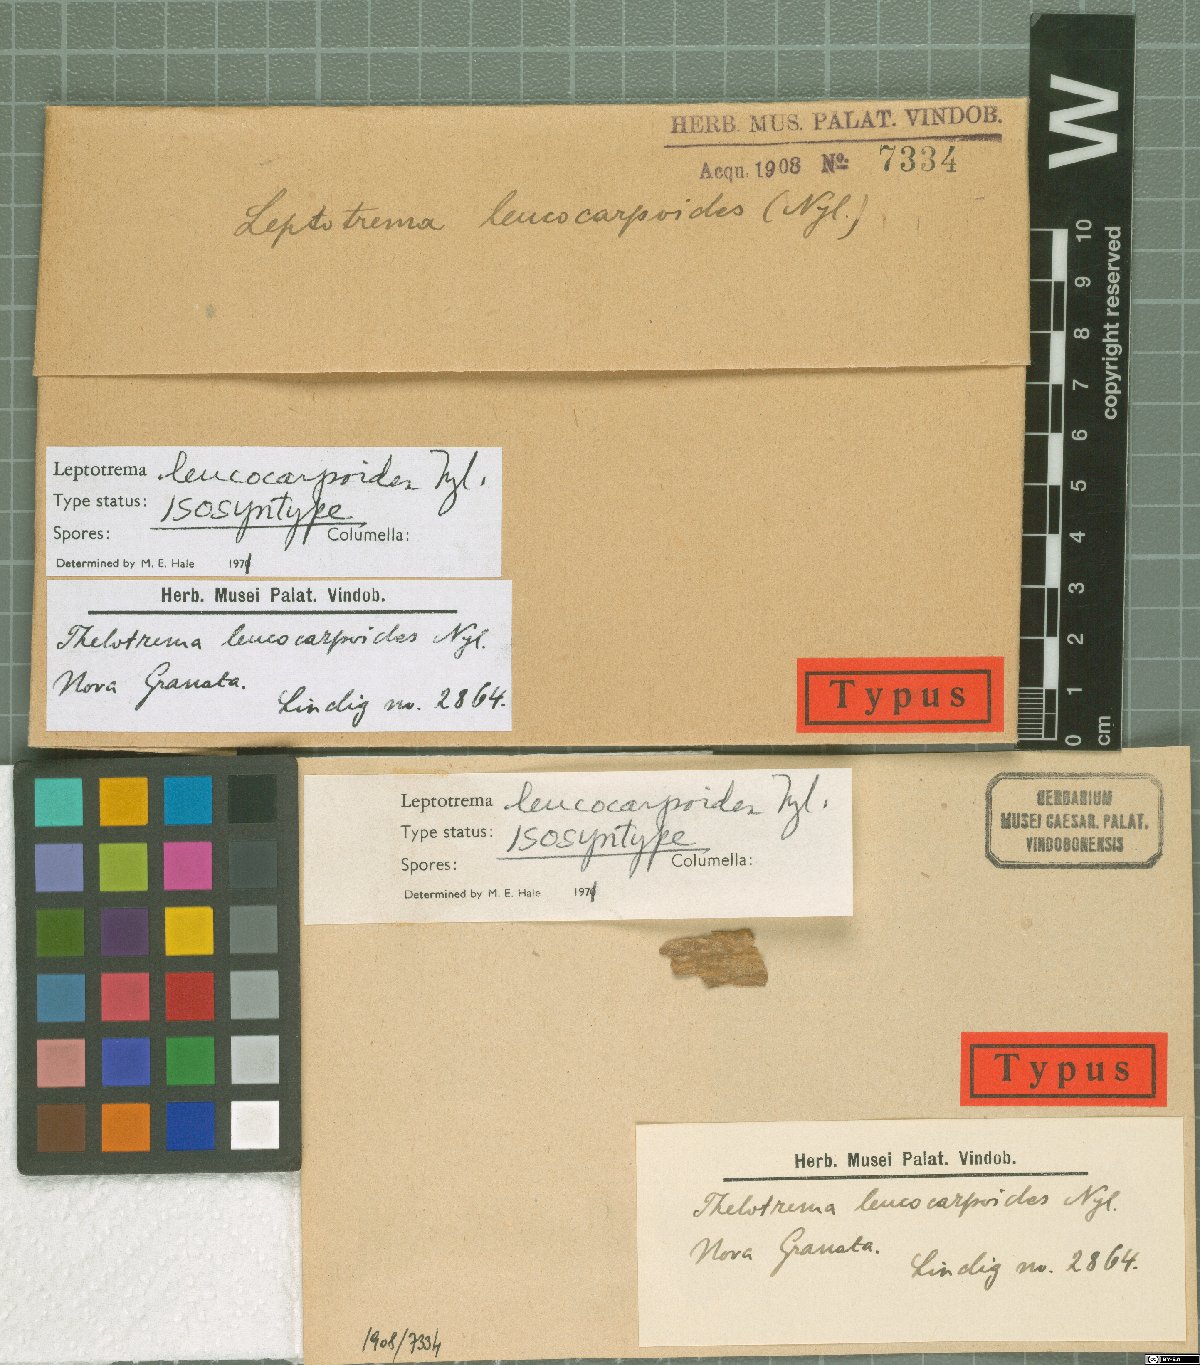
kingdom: Fungi
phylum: Ascomycota
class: Lecanoromycetes
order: Ostropales
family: Graphidaceae
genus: Ocellularia
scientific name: Ocellularia leucocarpoides
